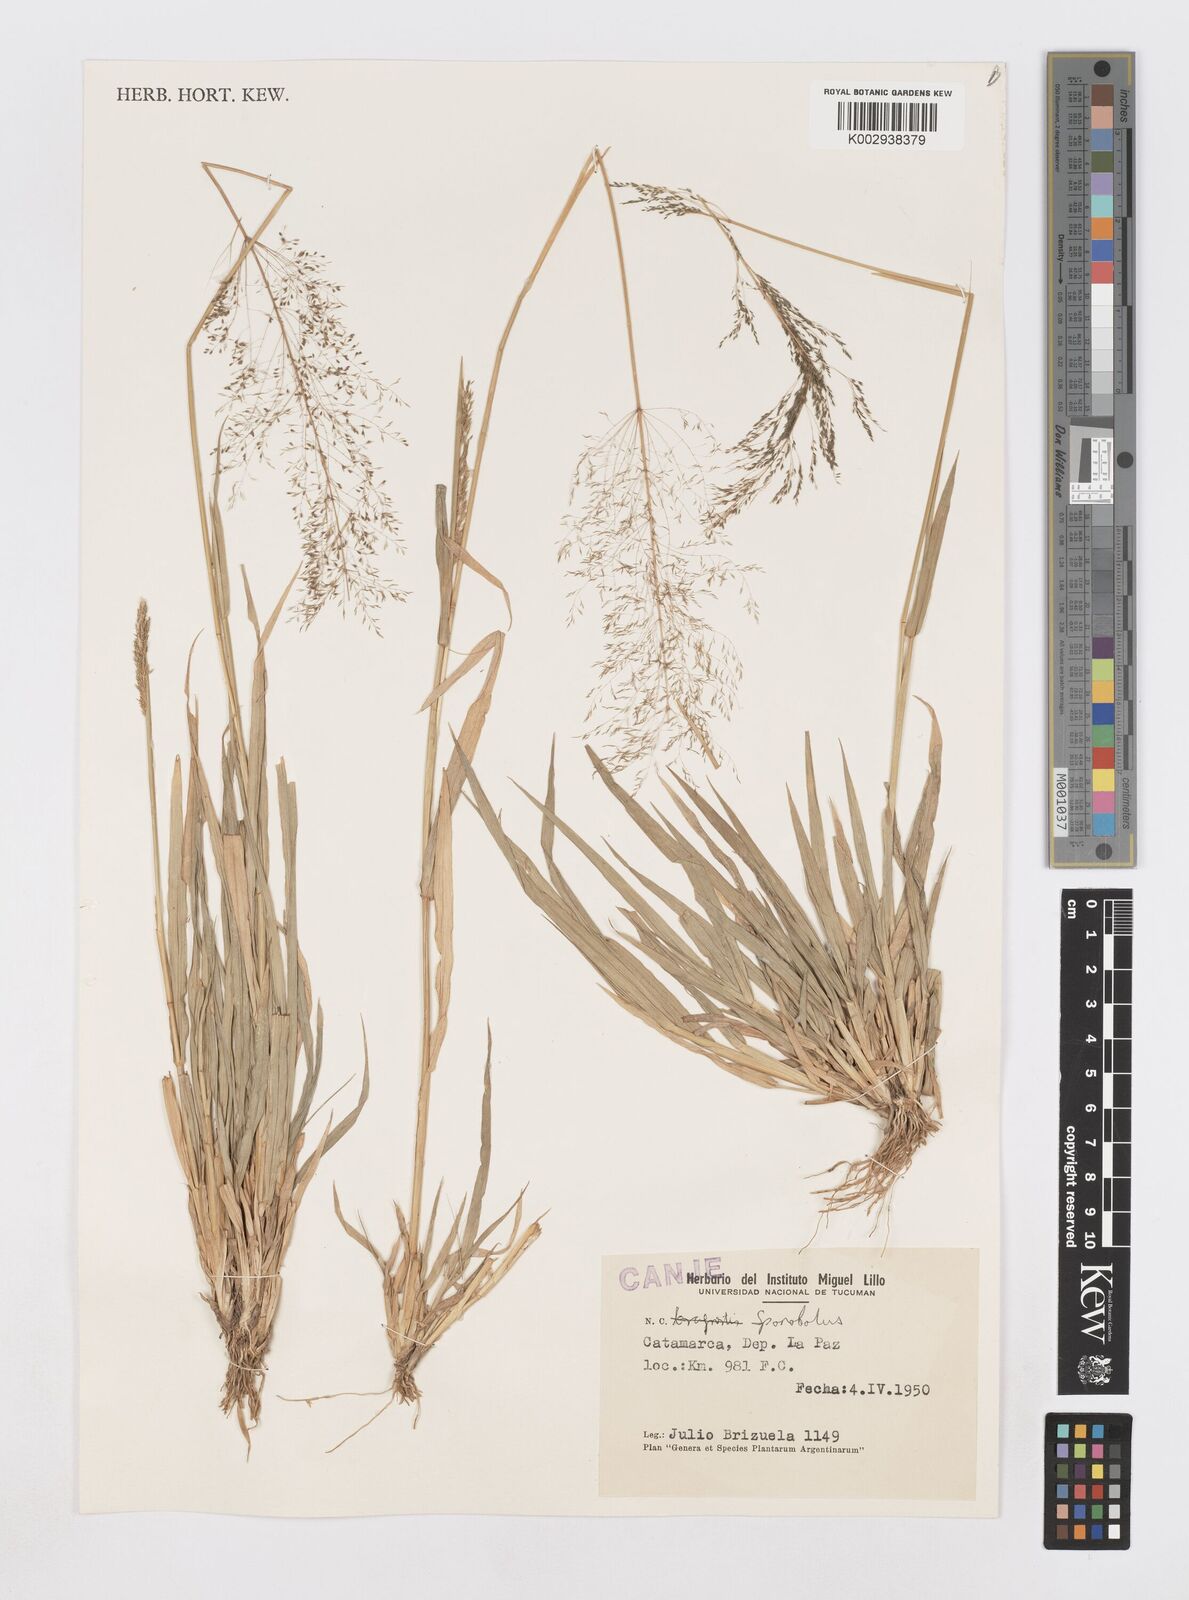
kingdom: Plantae
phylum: Tracheophyta
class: Liliopsida
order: Poales
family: Poaceae
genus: Sporobolus
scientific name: Sporobolus pyramidatus
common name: Whorled dropseed
